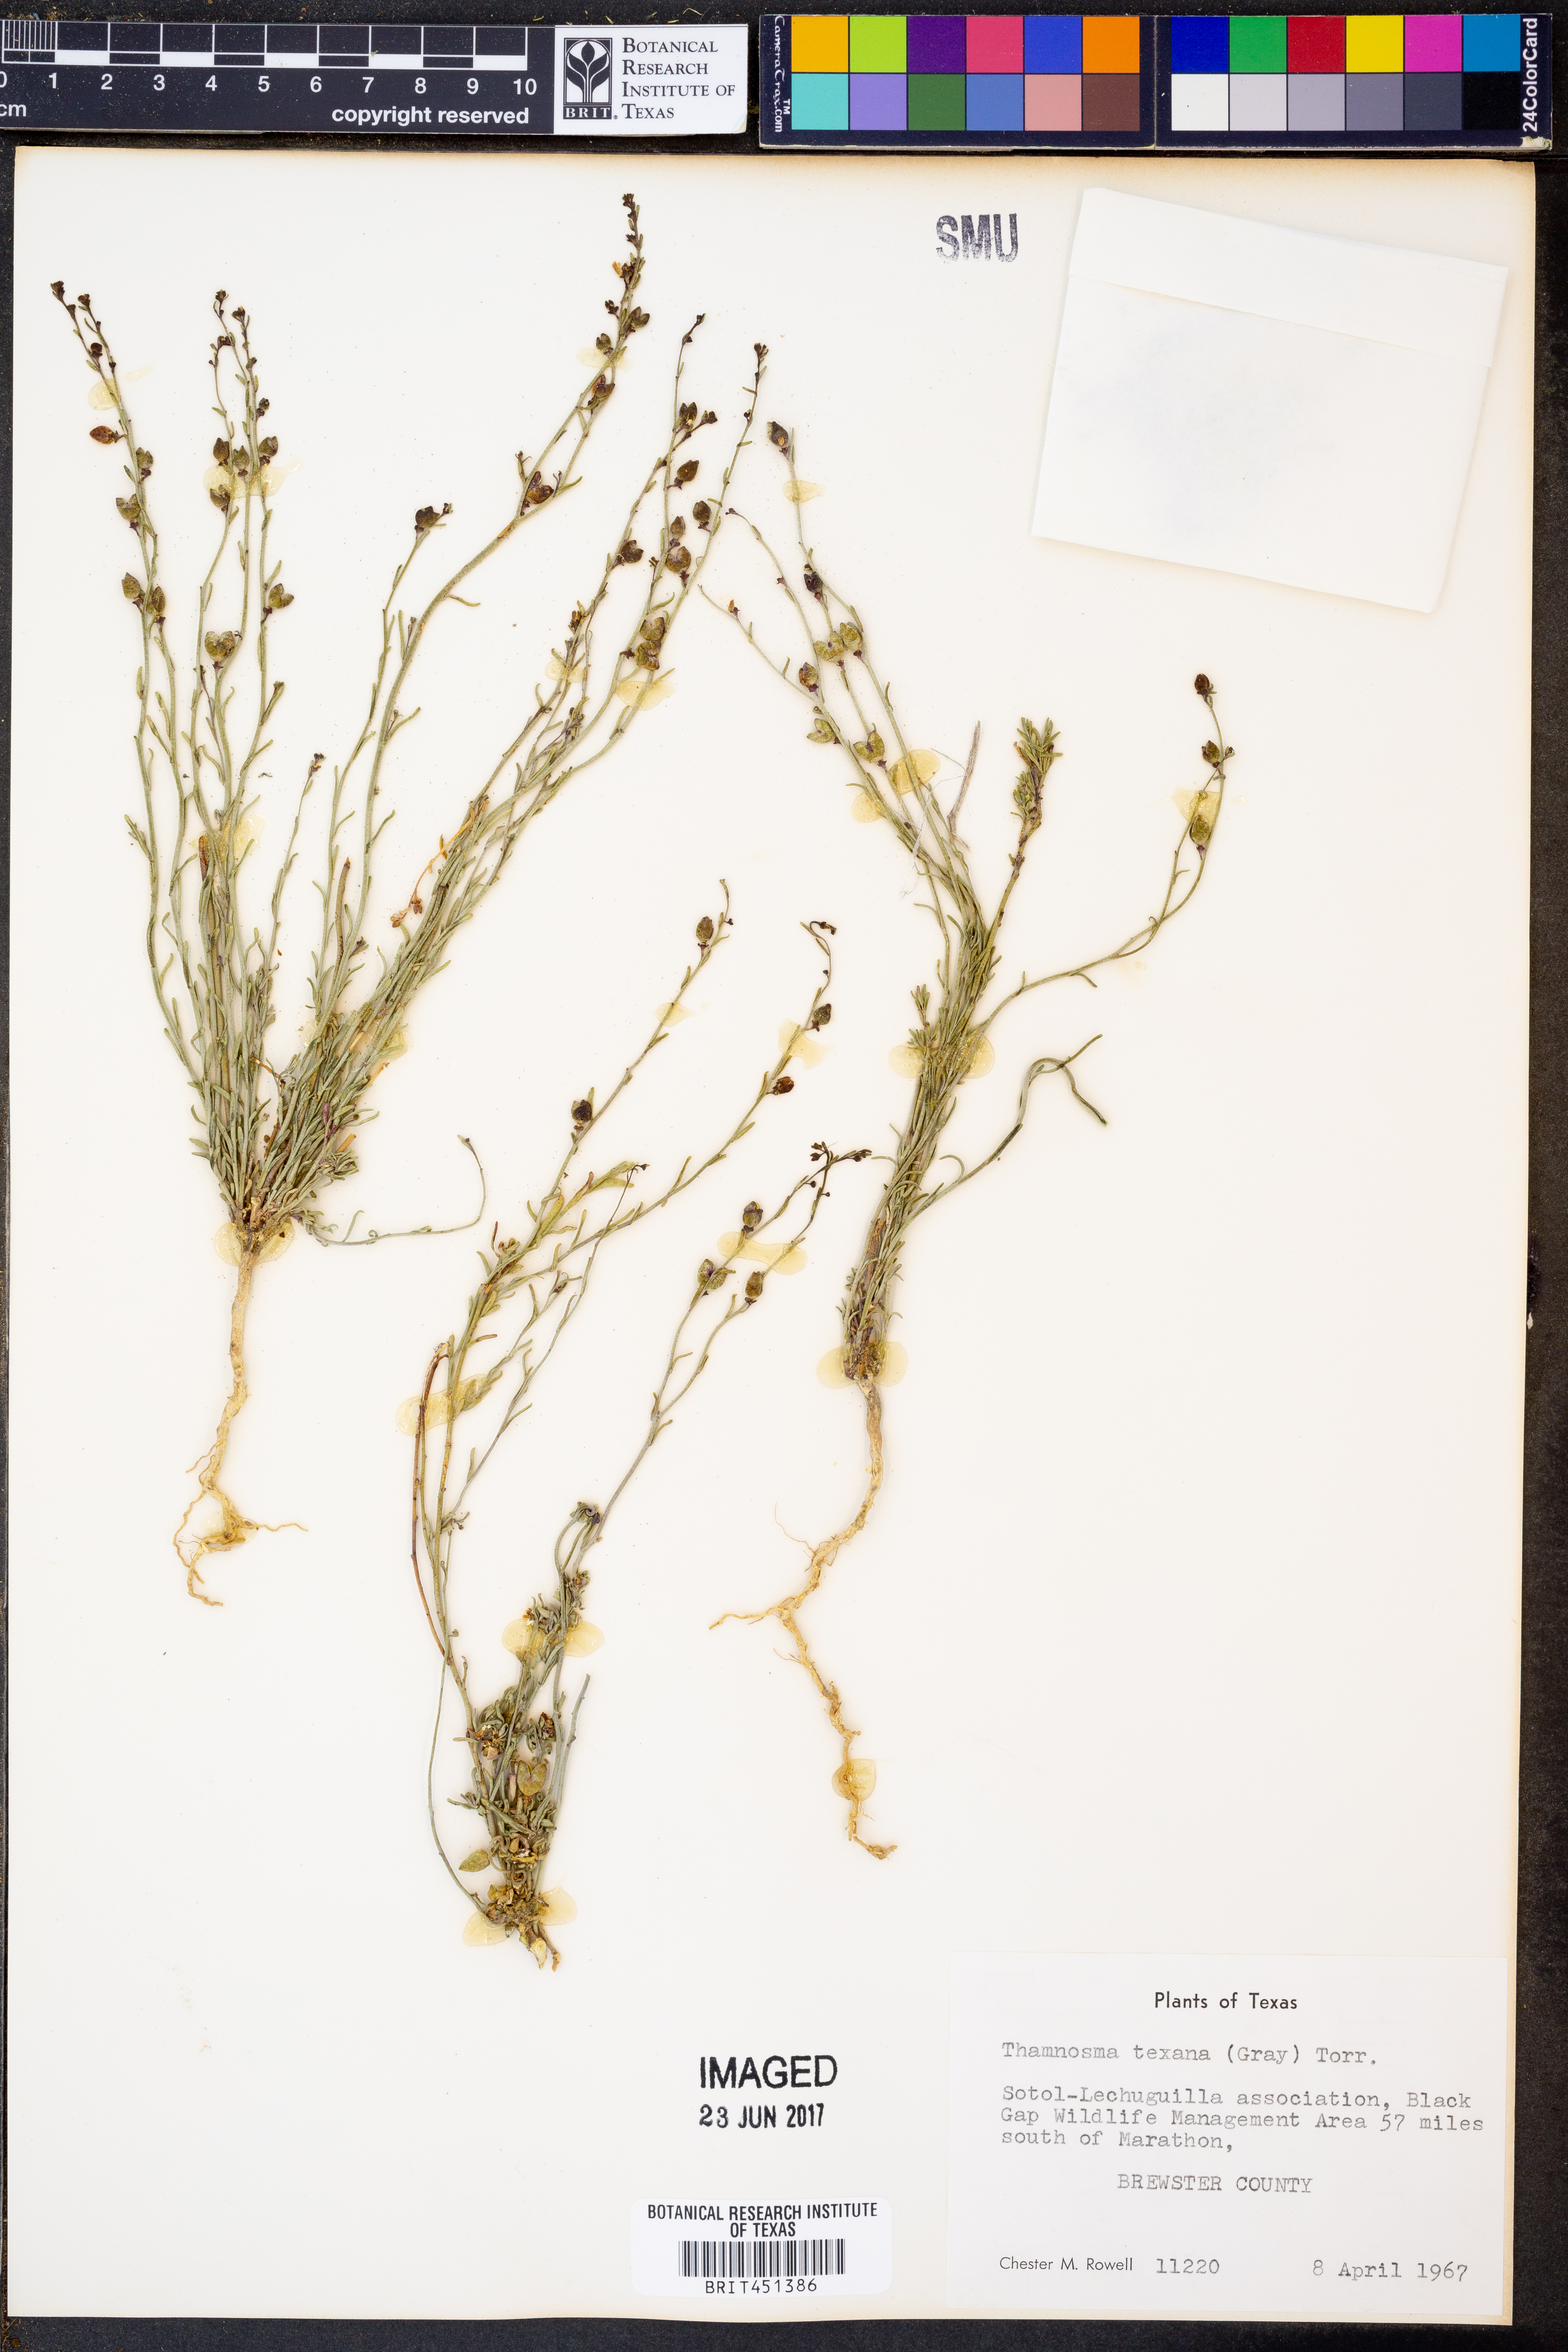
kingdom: Plantae
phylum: Tracheophyta
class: Magnoliopsida
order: Sapindales
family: Rutaceae
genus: Thamnosma
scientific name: Thamnosma texana
